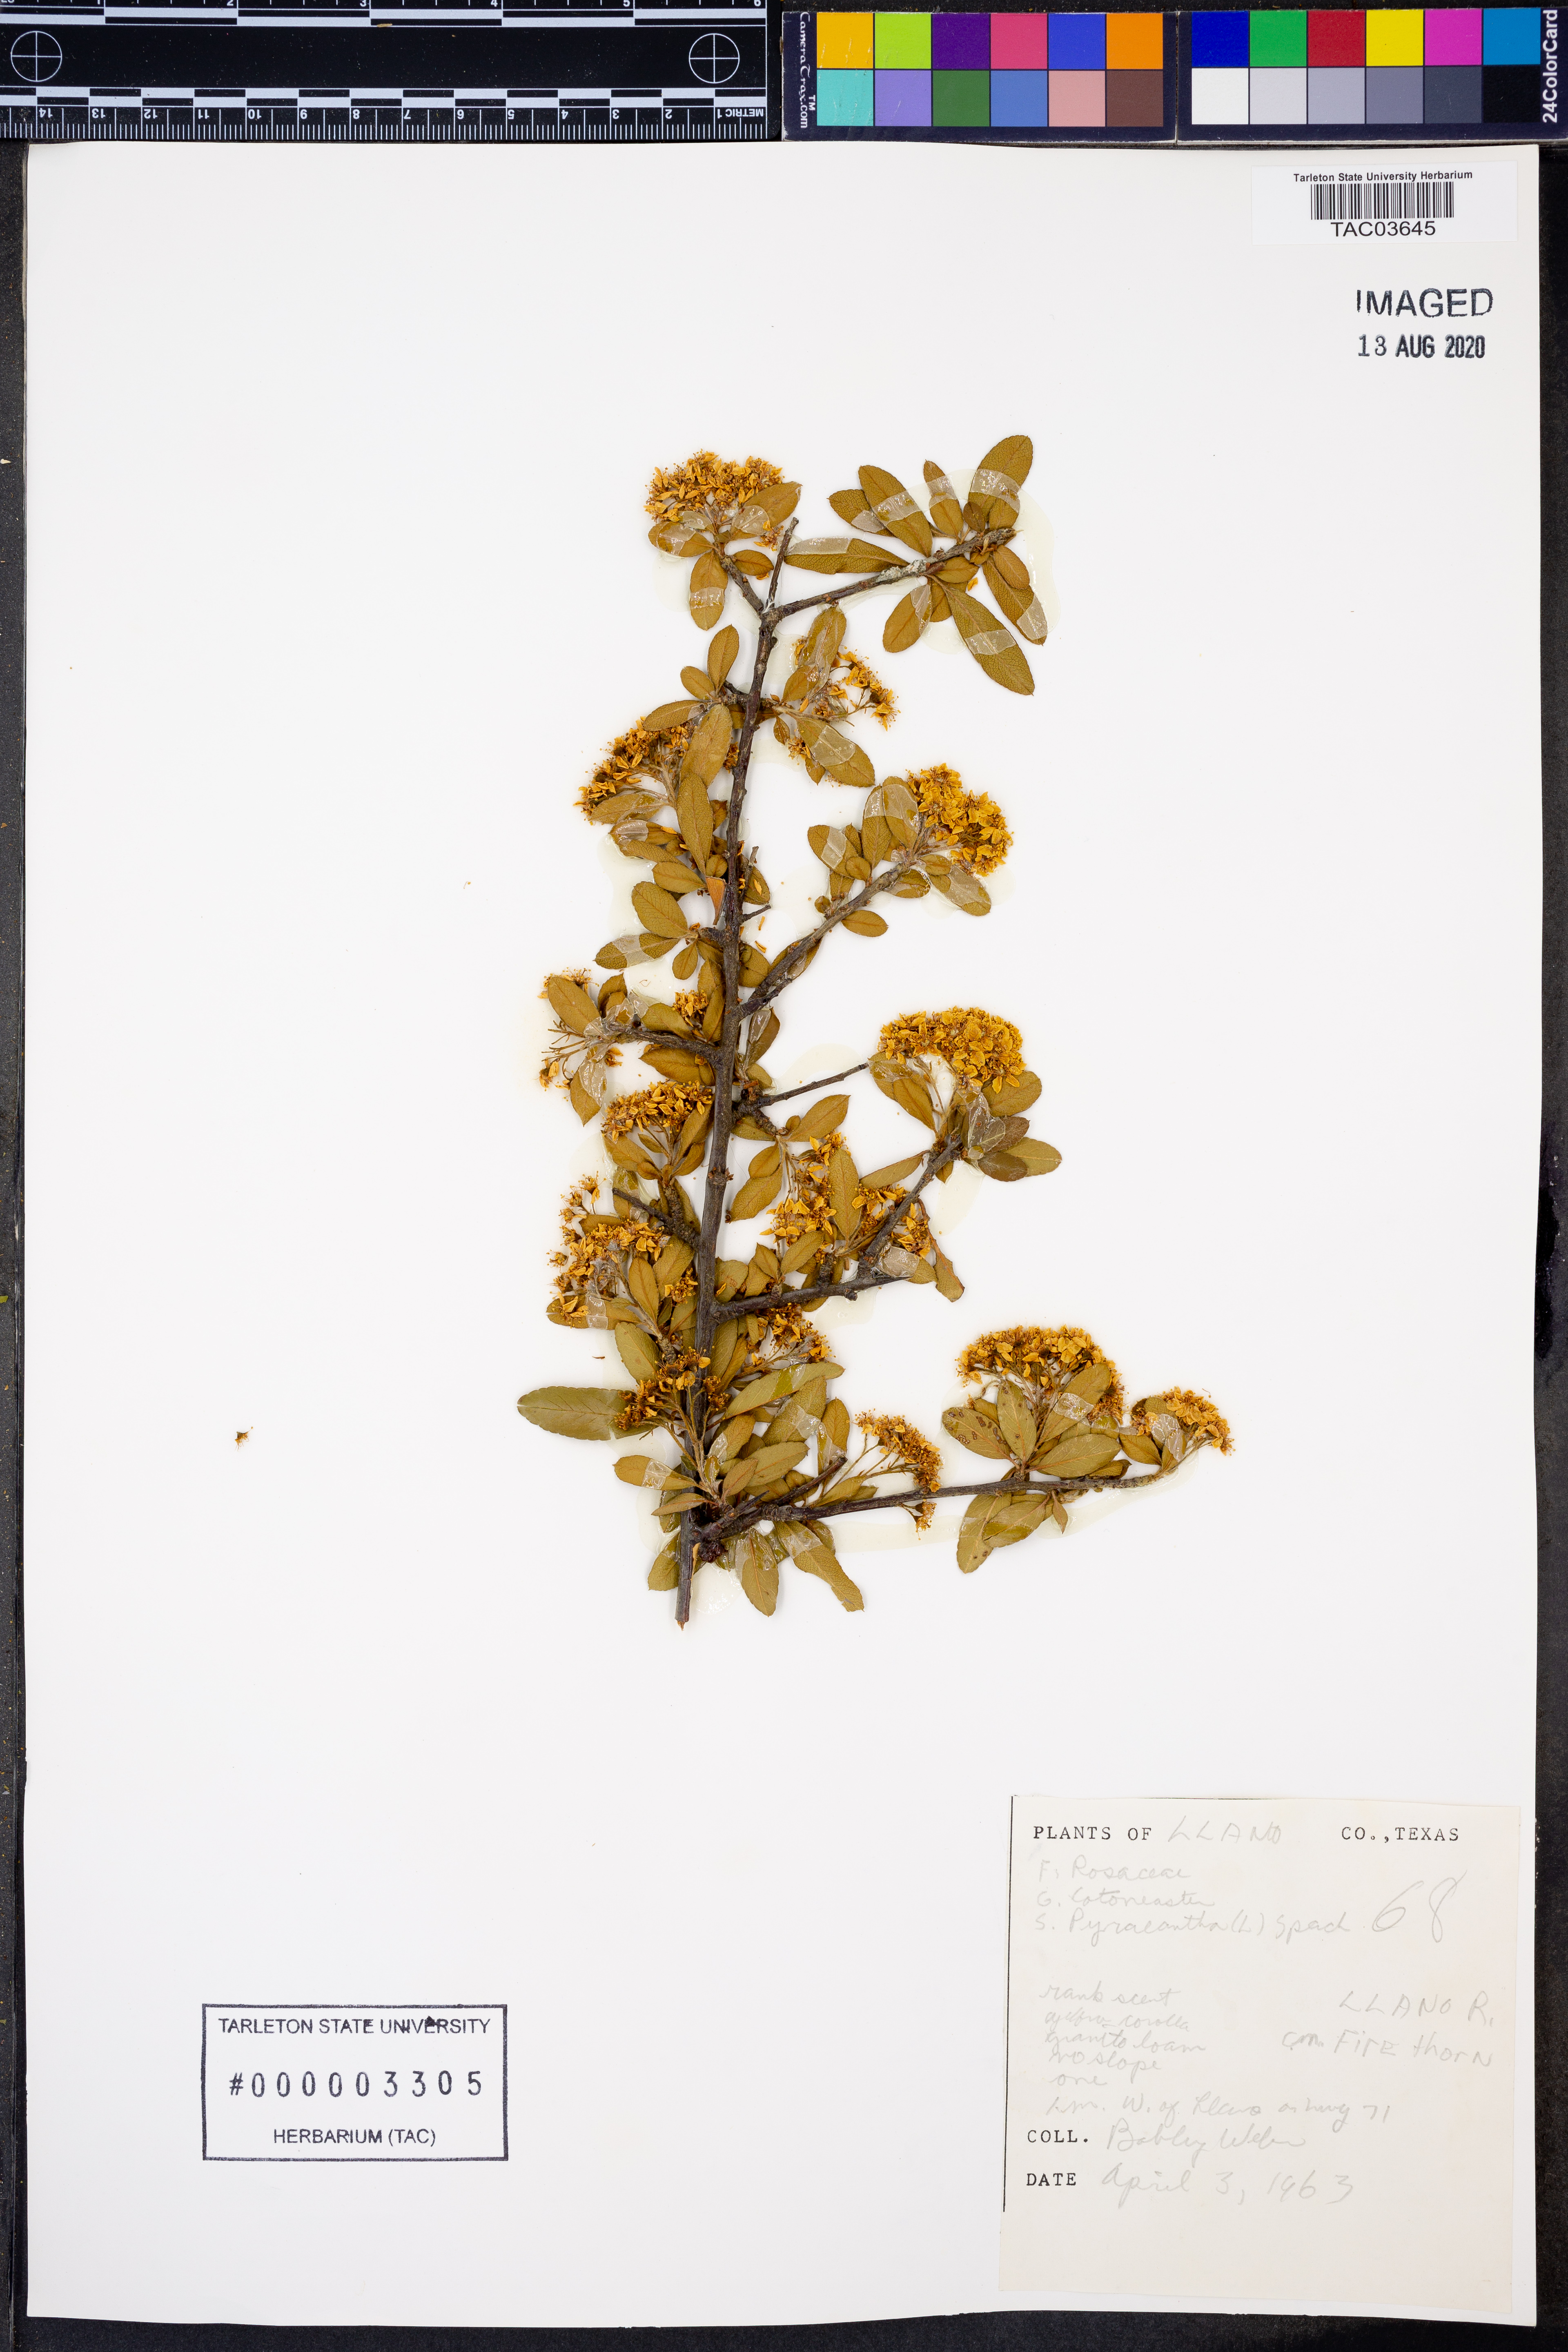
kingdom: Plantae
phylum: Tracheophyta
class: Magnoliopsida
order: Rosales
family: Rosaceae
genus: Pyracantha
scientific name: Pyracantha coccinea
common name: Firethorn
